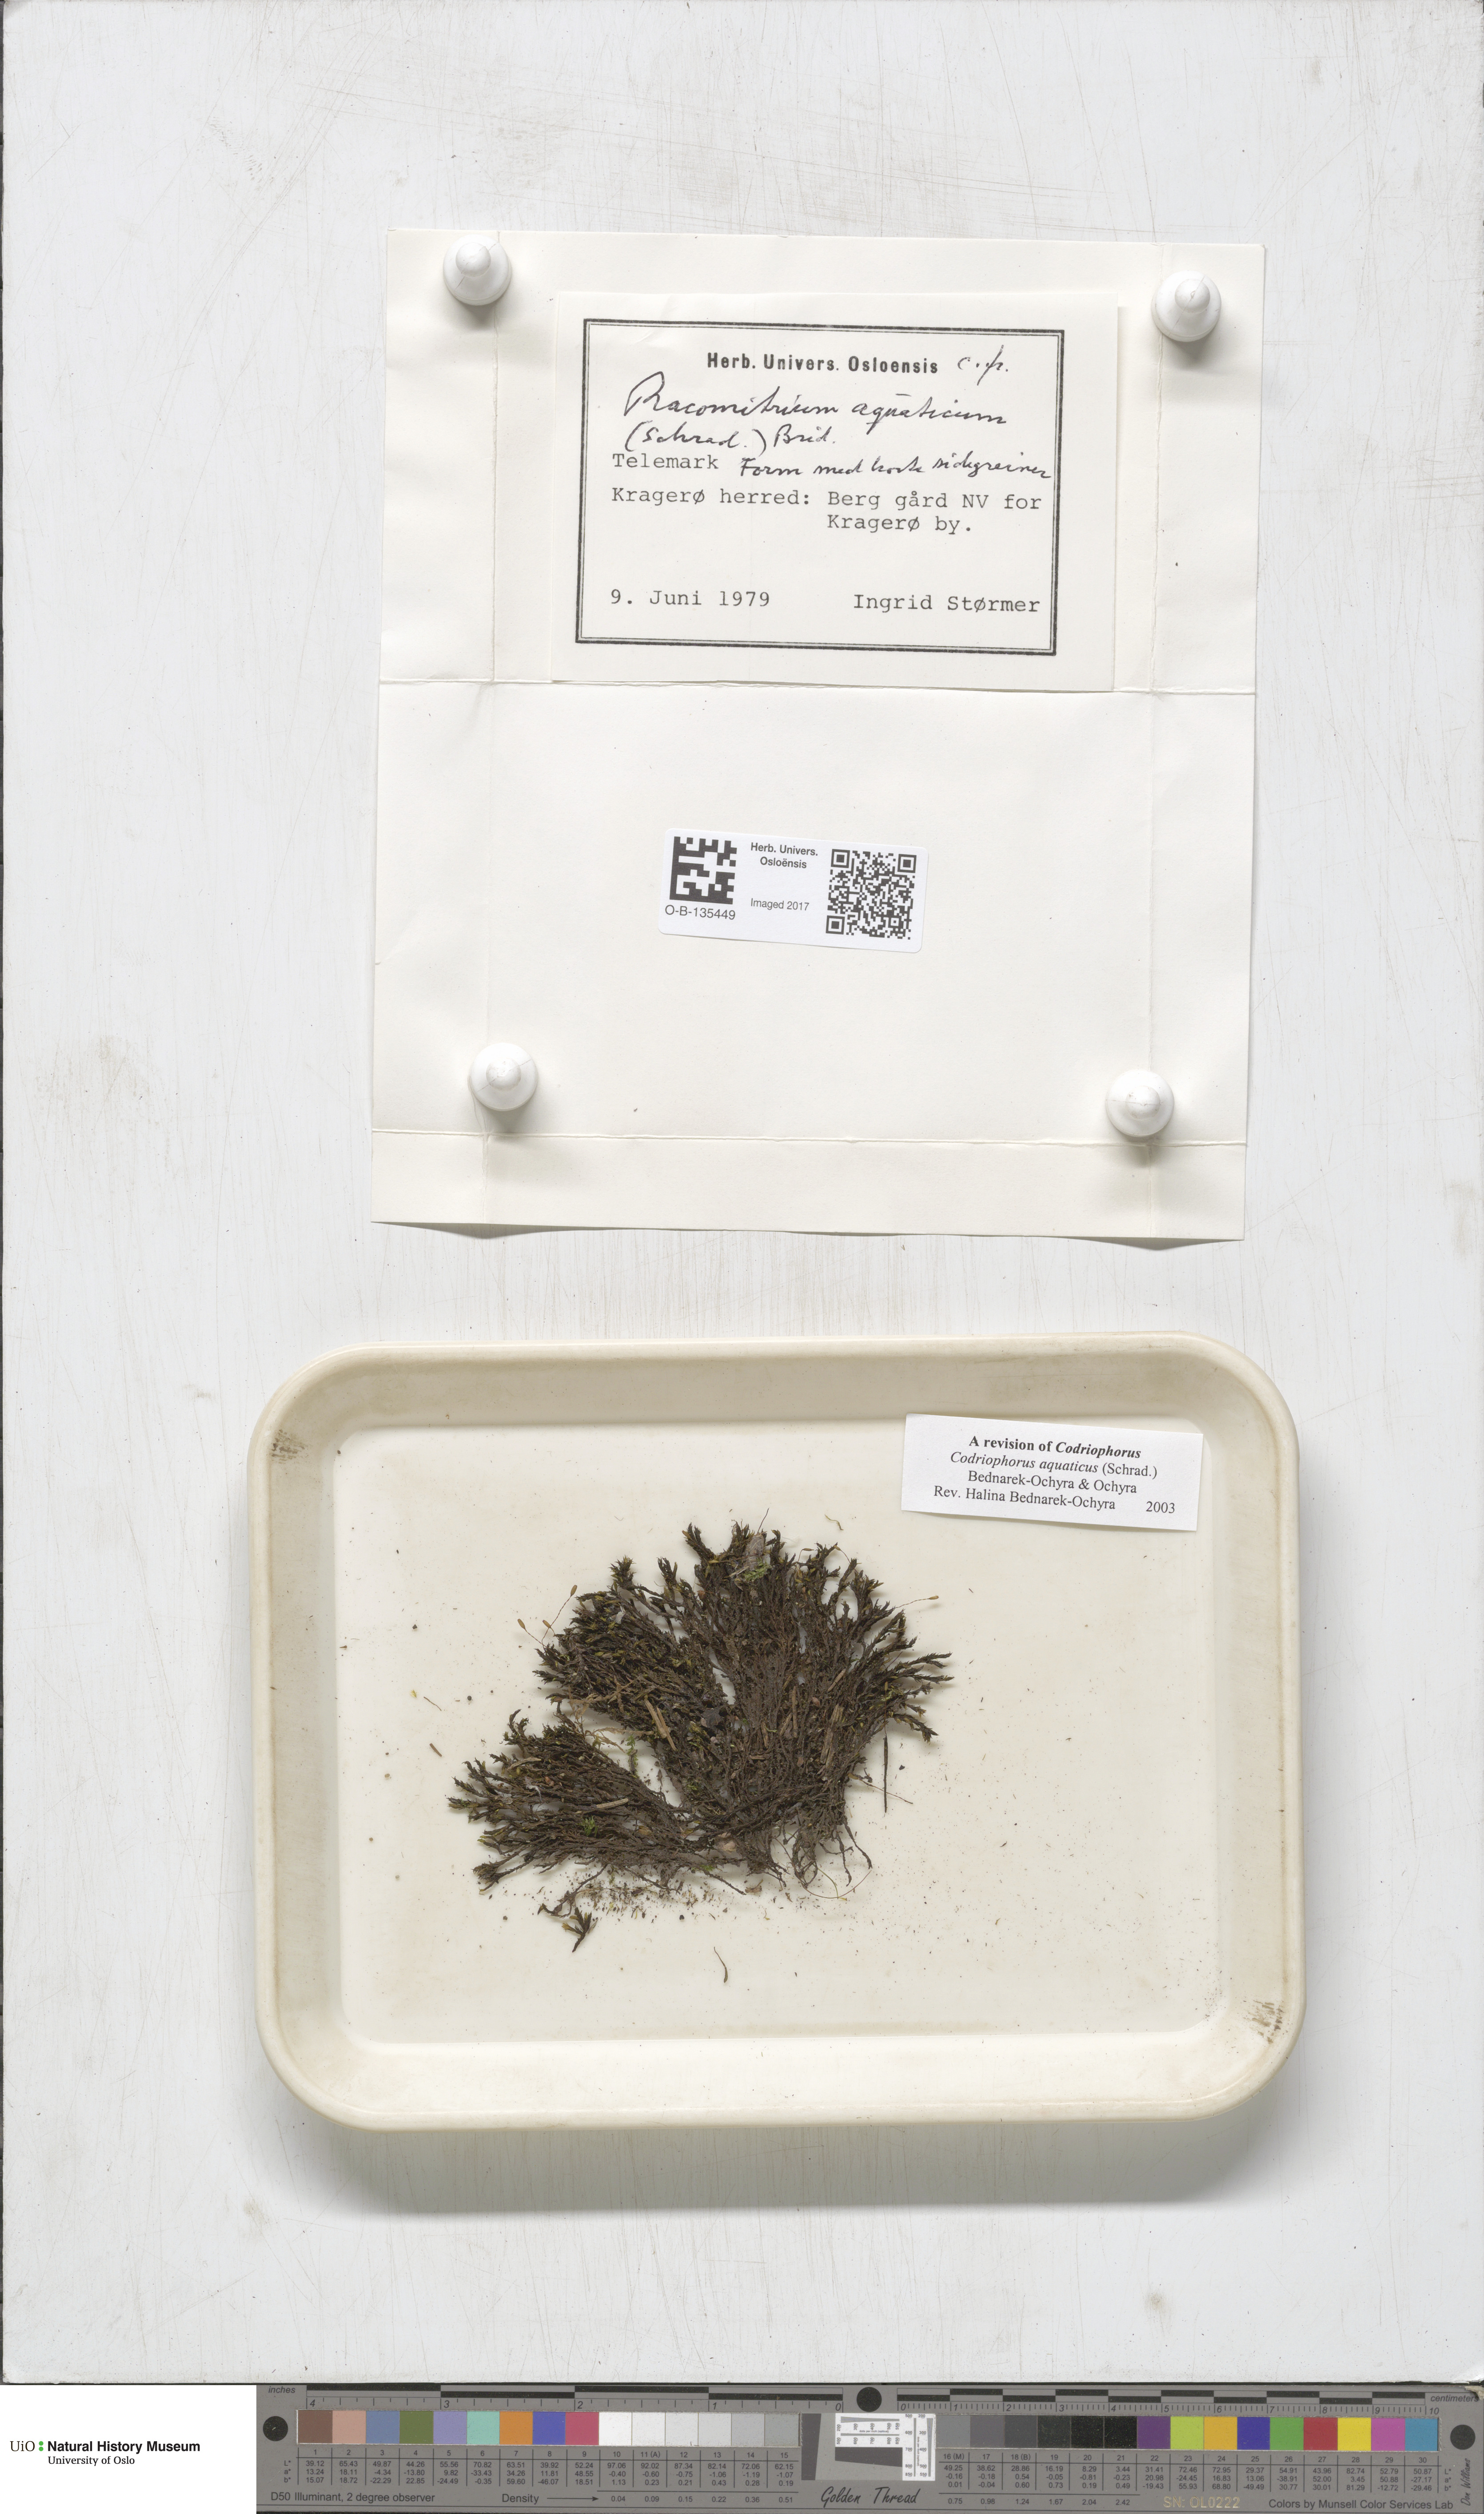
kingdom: Plantae
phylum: Bryophyta
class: Bryopsida
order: Grimmiales
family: Grimmiaceae
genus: Codriophorus
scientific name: Codriophorus aquaticus
